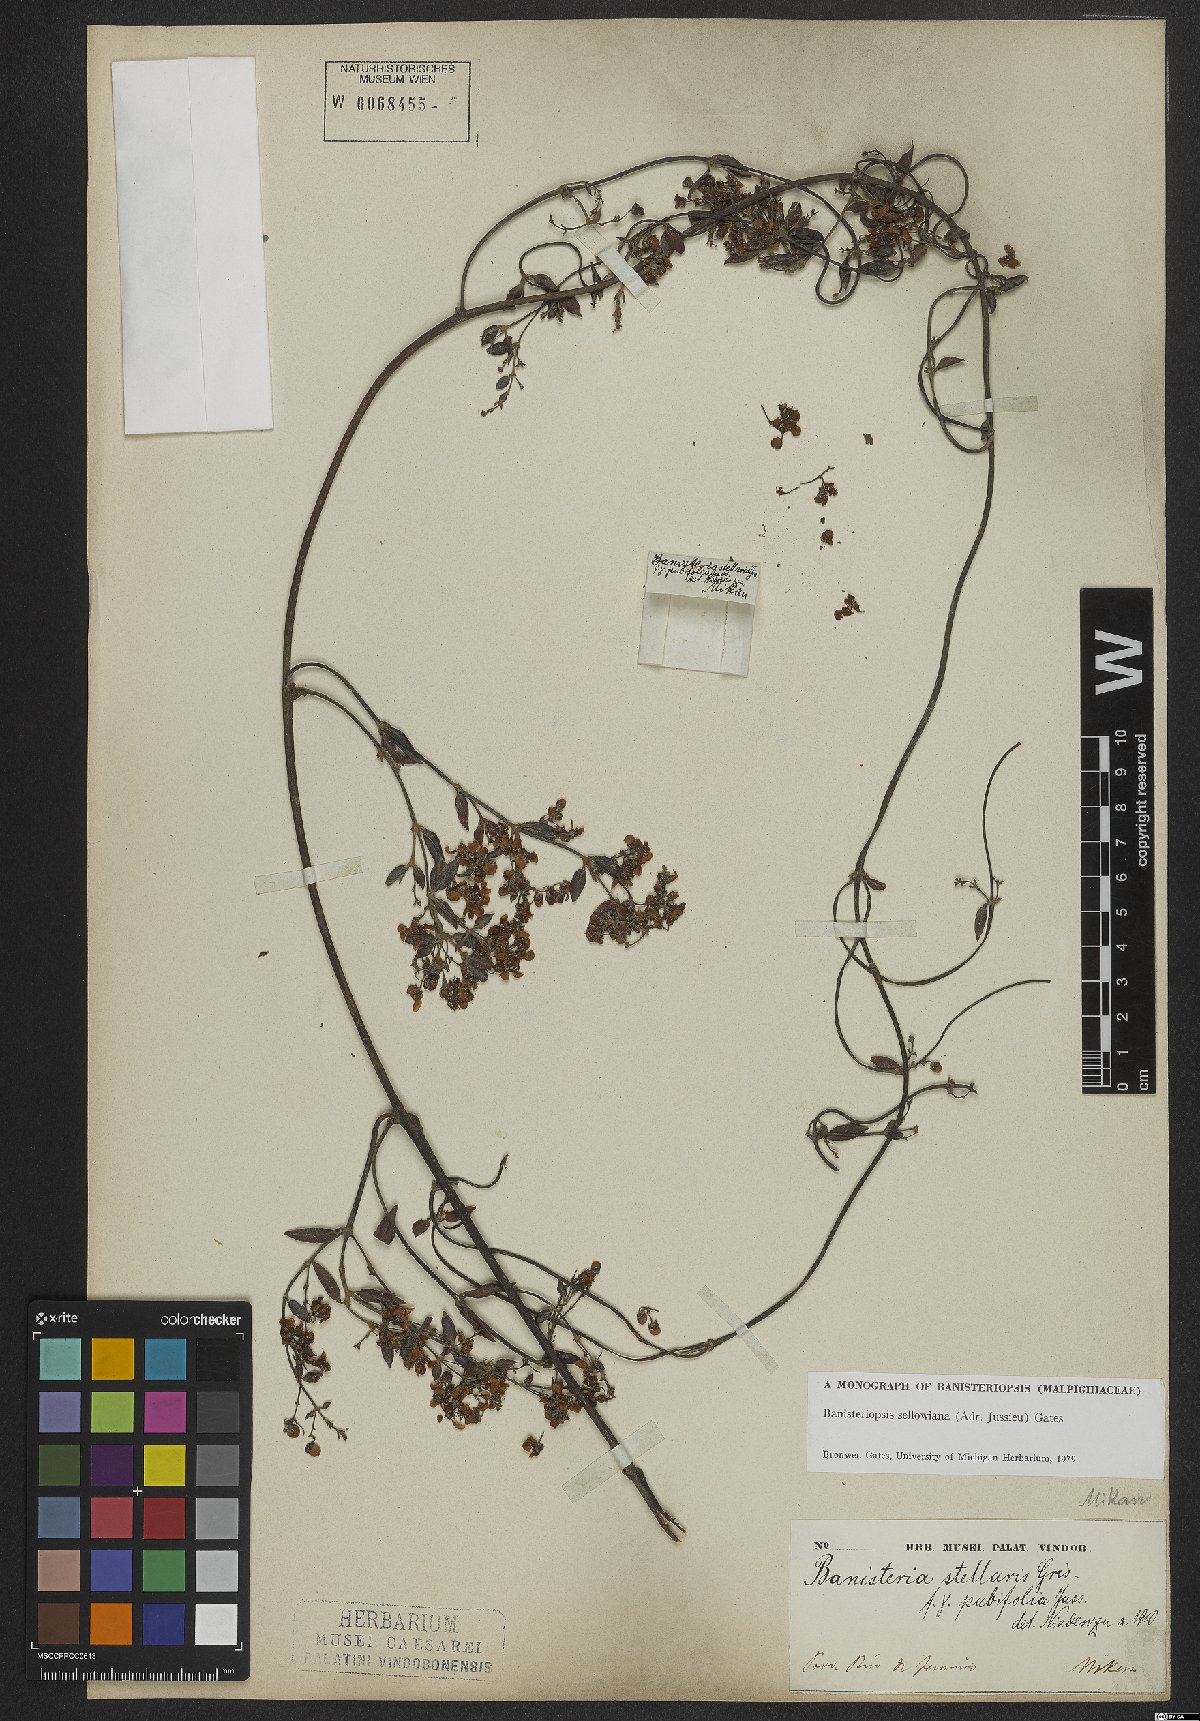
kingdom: Plantae
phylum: Tracheophyta
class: Magnoliopsida
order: Malpighiales
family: Malpighiaceae
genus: Banisteriopsis
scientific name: Banisteriopsis sellowiana
